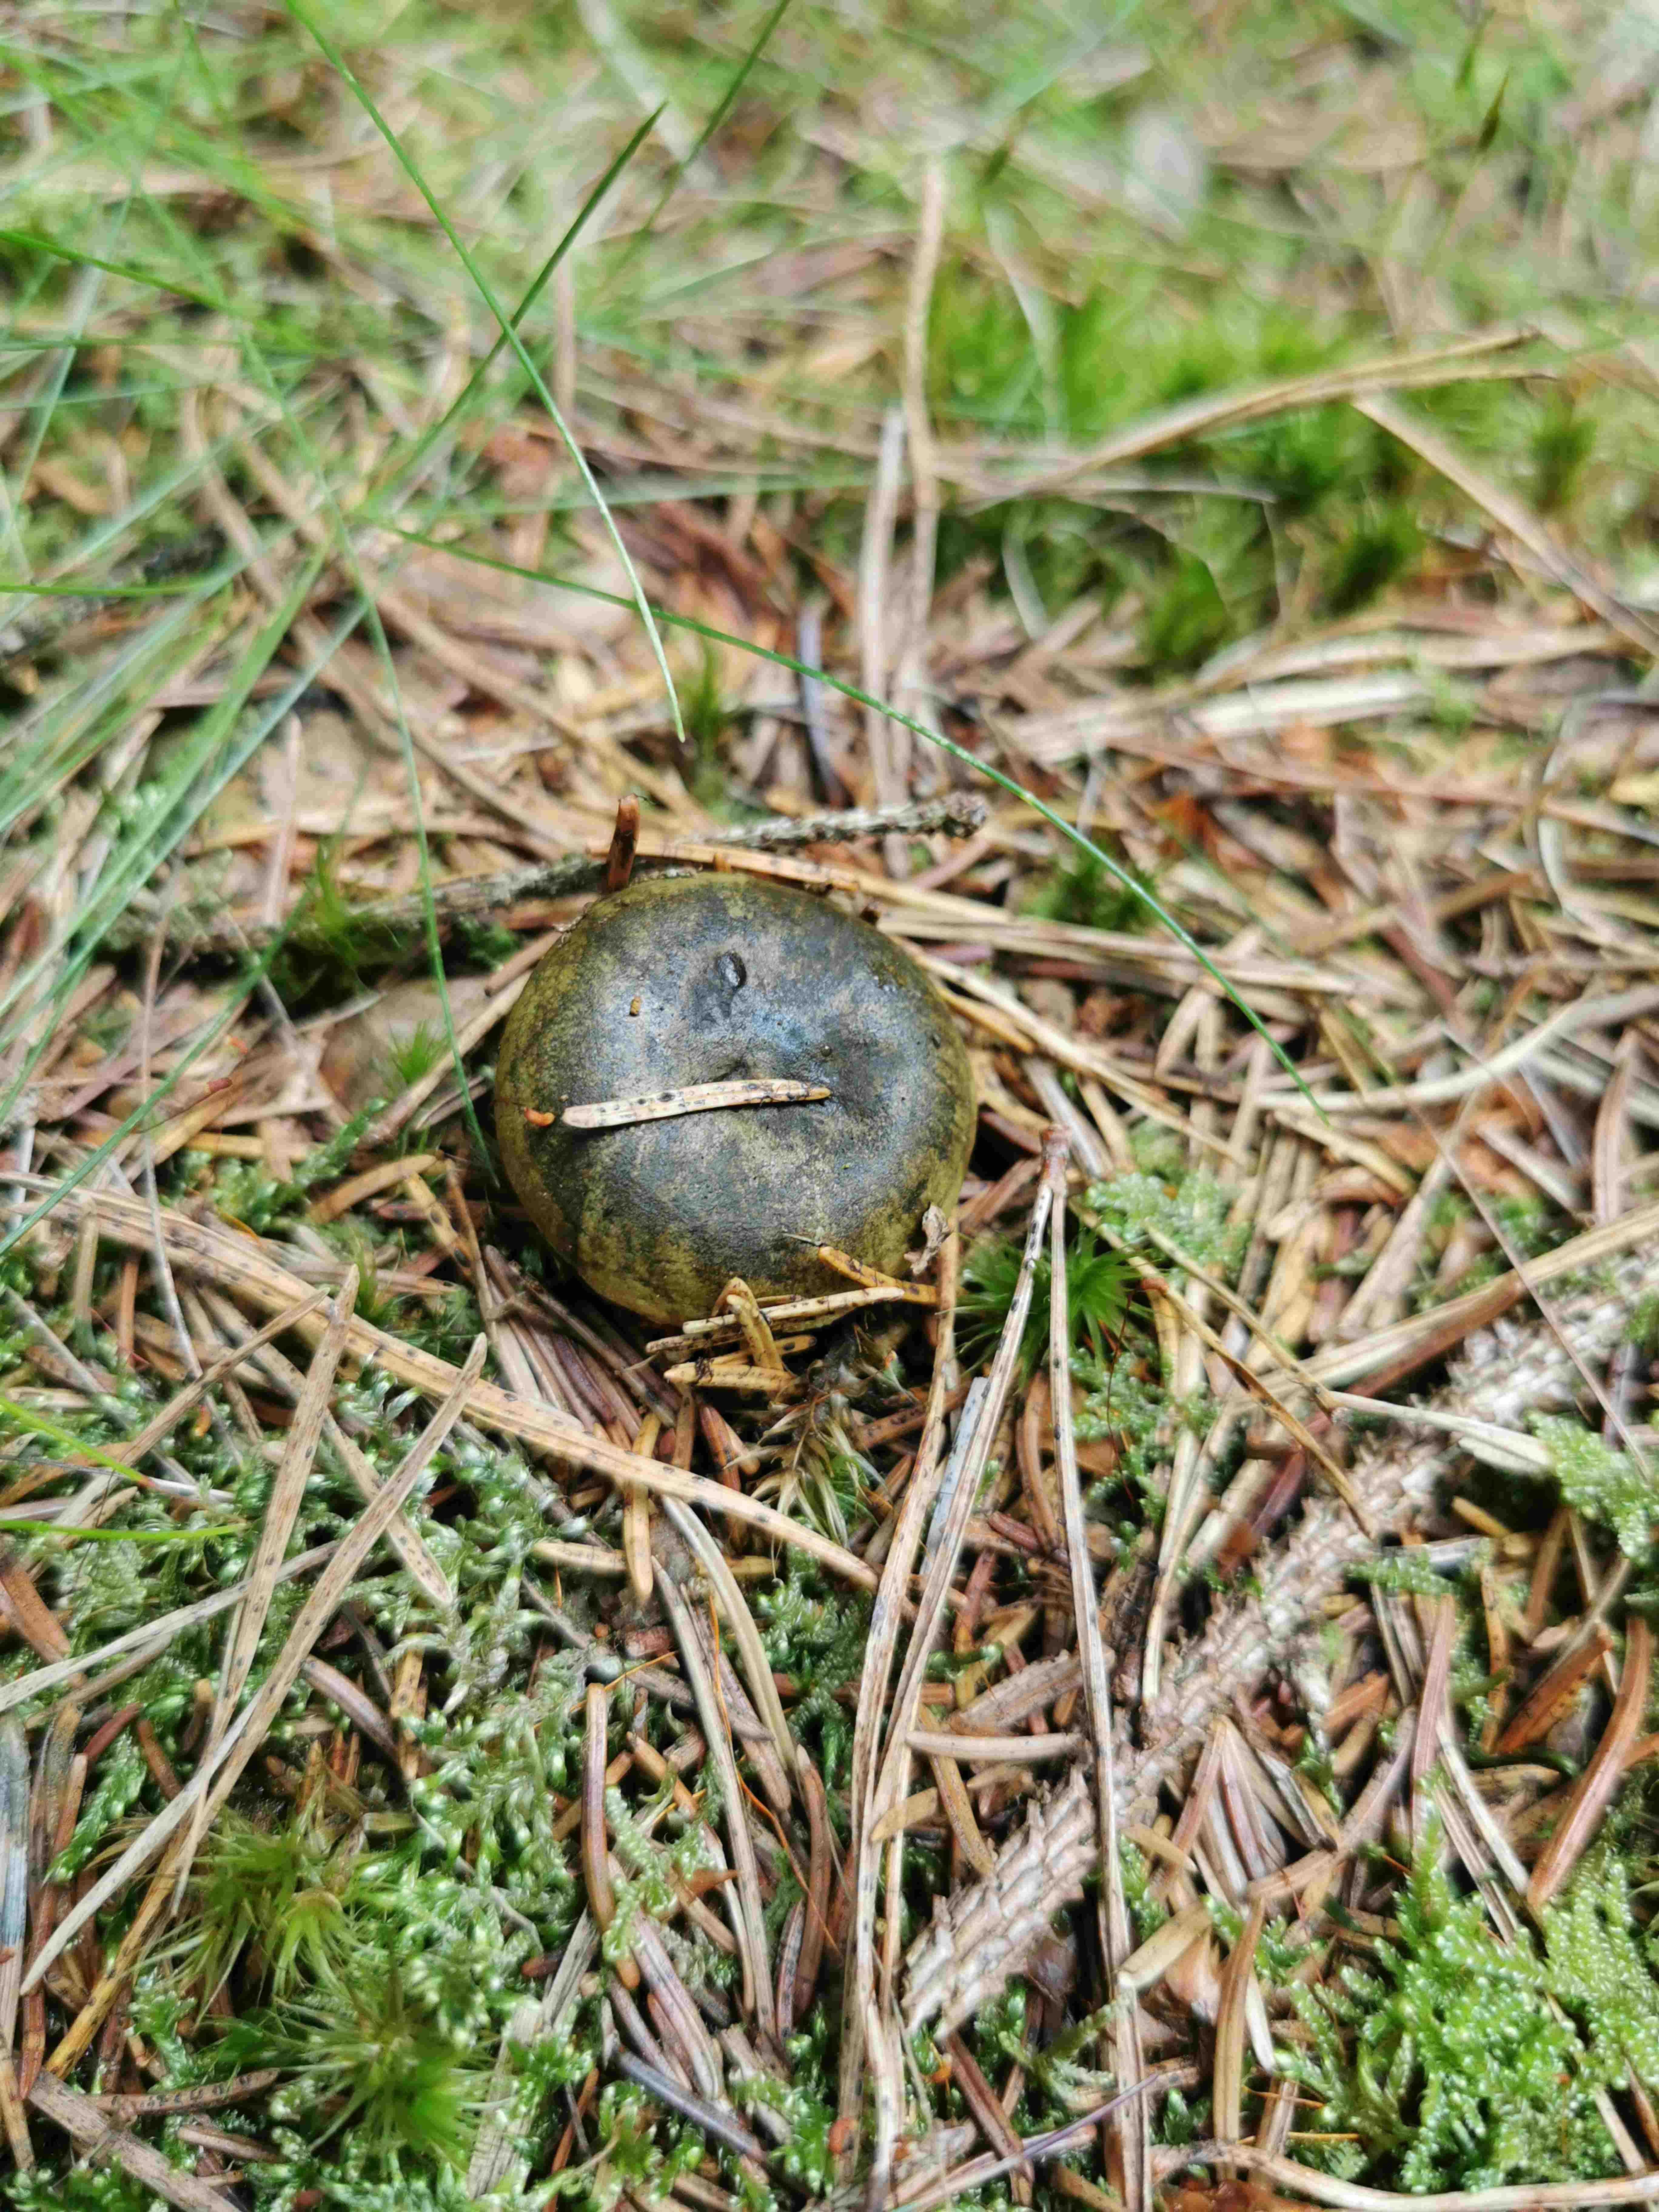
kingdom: Fungi
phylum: Basidiomycota
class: Agaricomycetes
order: Russulales
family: Russulaceae
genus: Lactarius
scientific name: Lactarius necator
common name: manddraber-mælkehat
